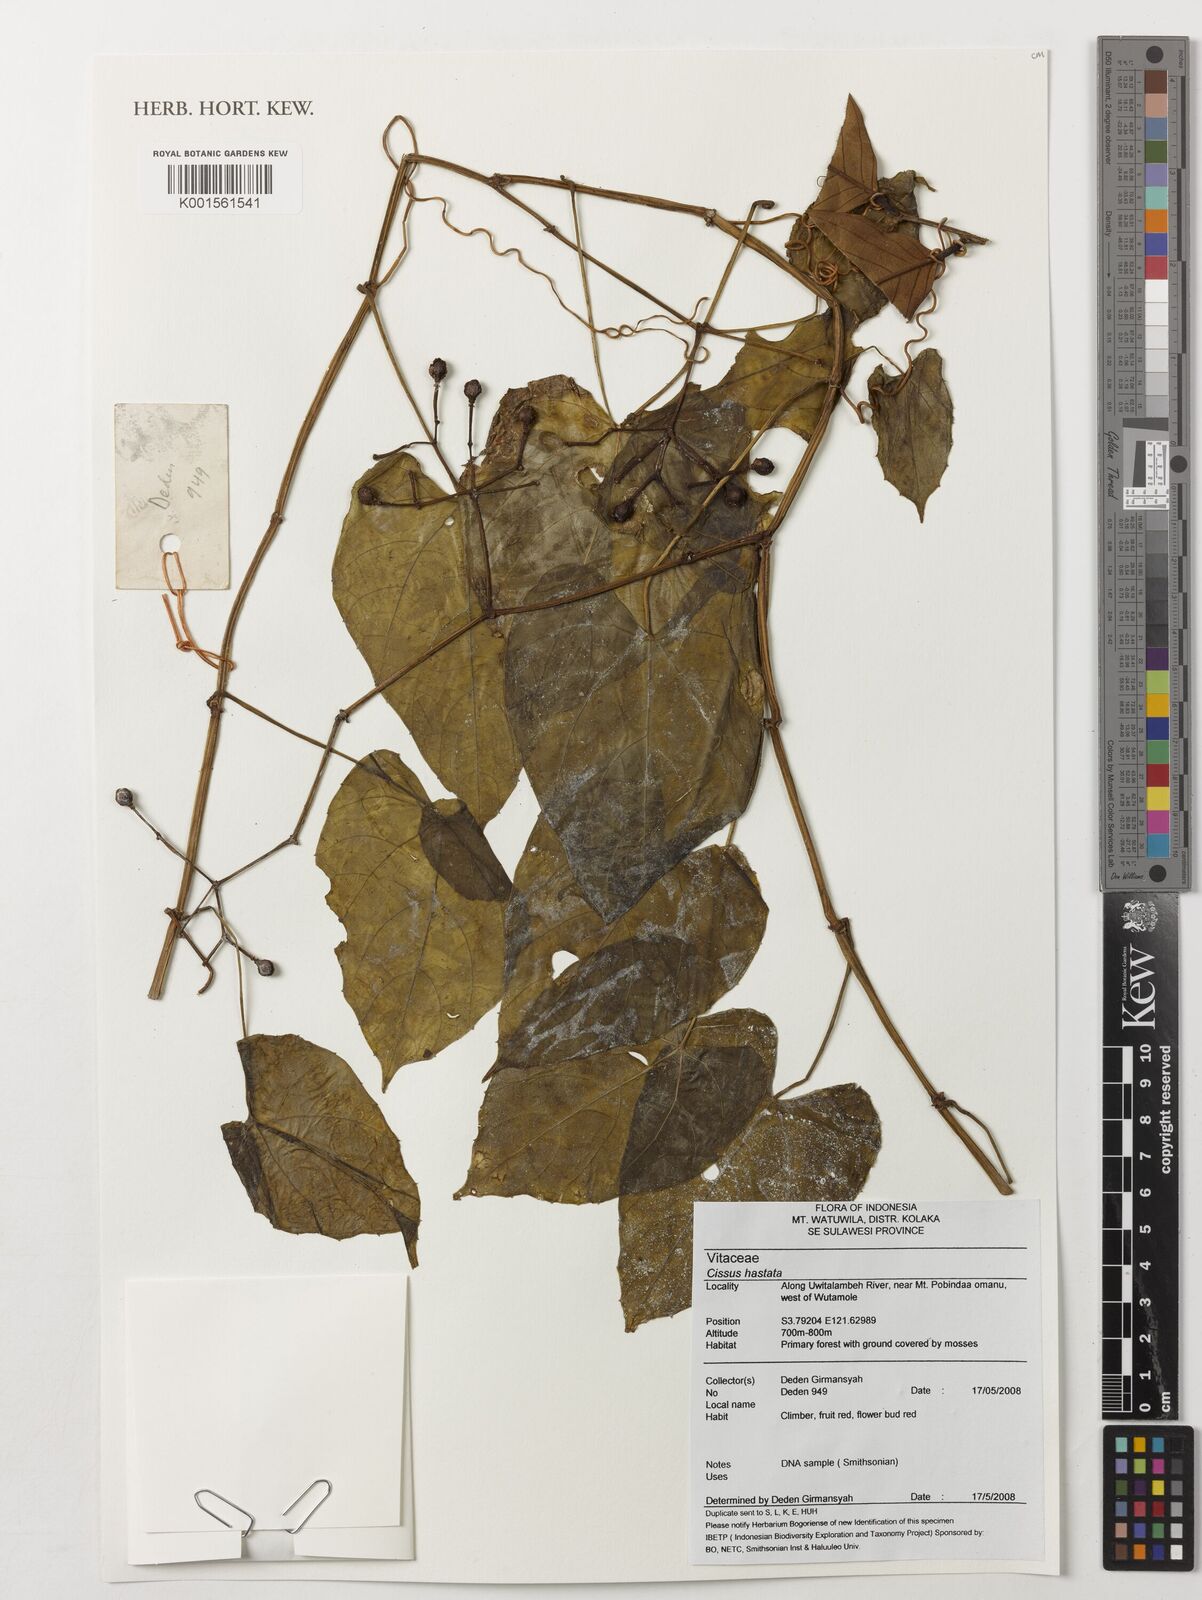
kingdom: Plantae
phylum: Tracheophyta
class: Magnoliopsida
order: Vitales
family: Vitaceae
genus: Cissus
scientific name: Cissus hastata
